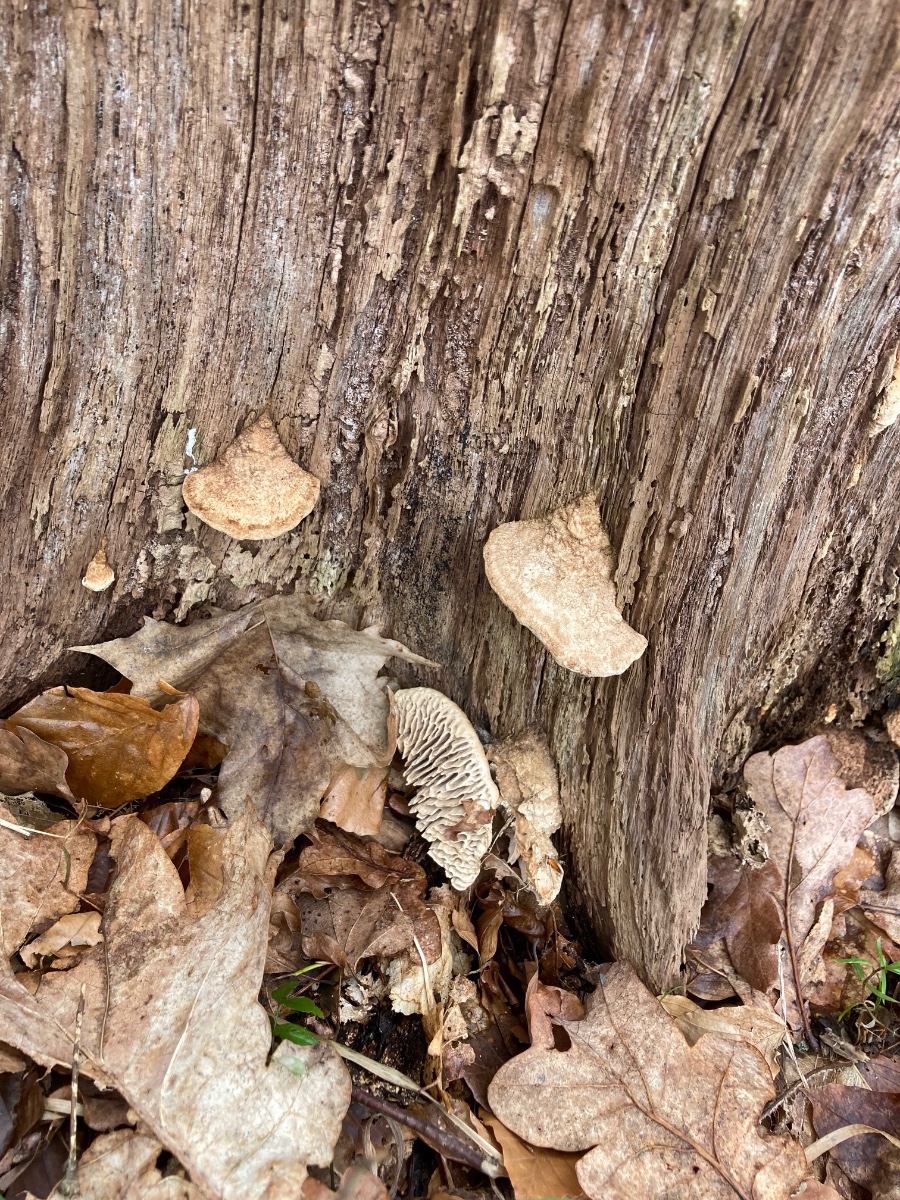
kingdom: Fungi
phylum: Basidiomycota
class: Agaricomycetes
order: Polyporales
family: Fomitopsidaceae
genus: Daedalea
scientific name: Daedalea quercina
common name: ege-labyrintsvamp
